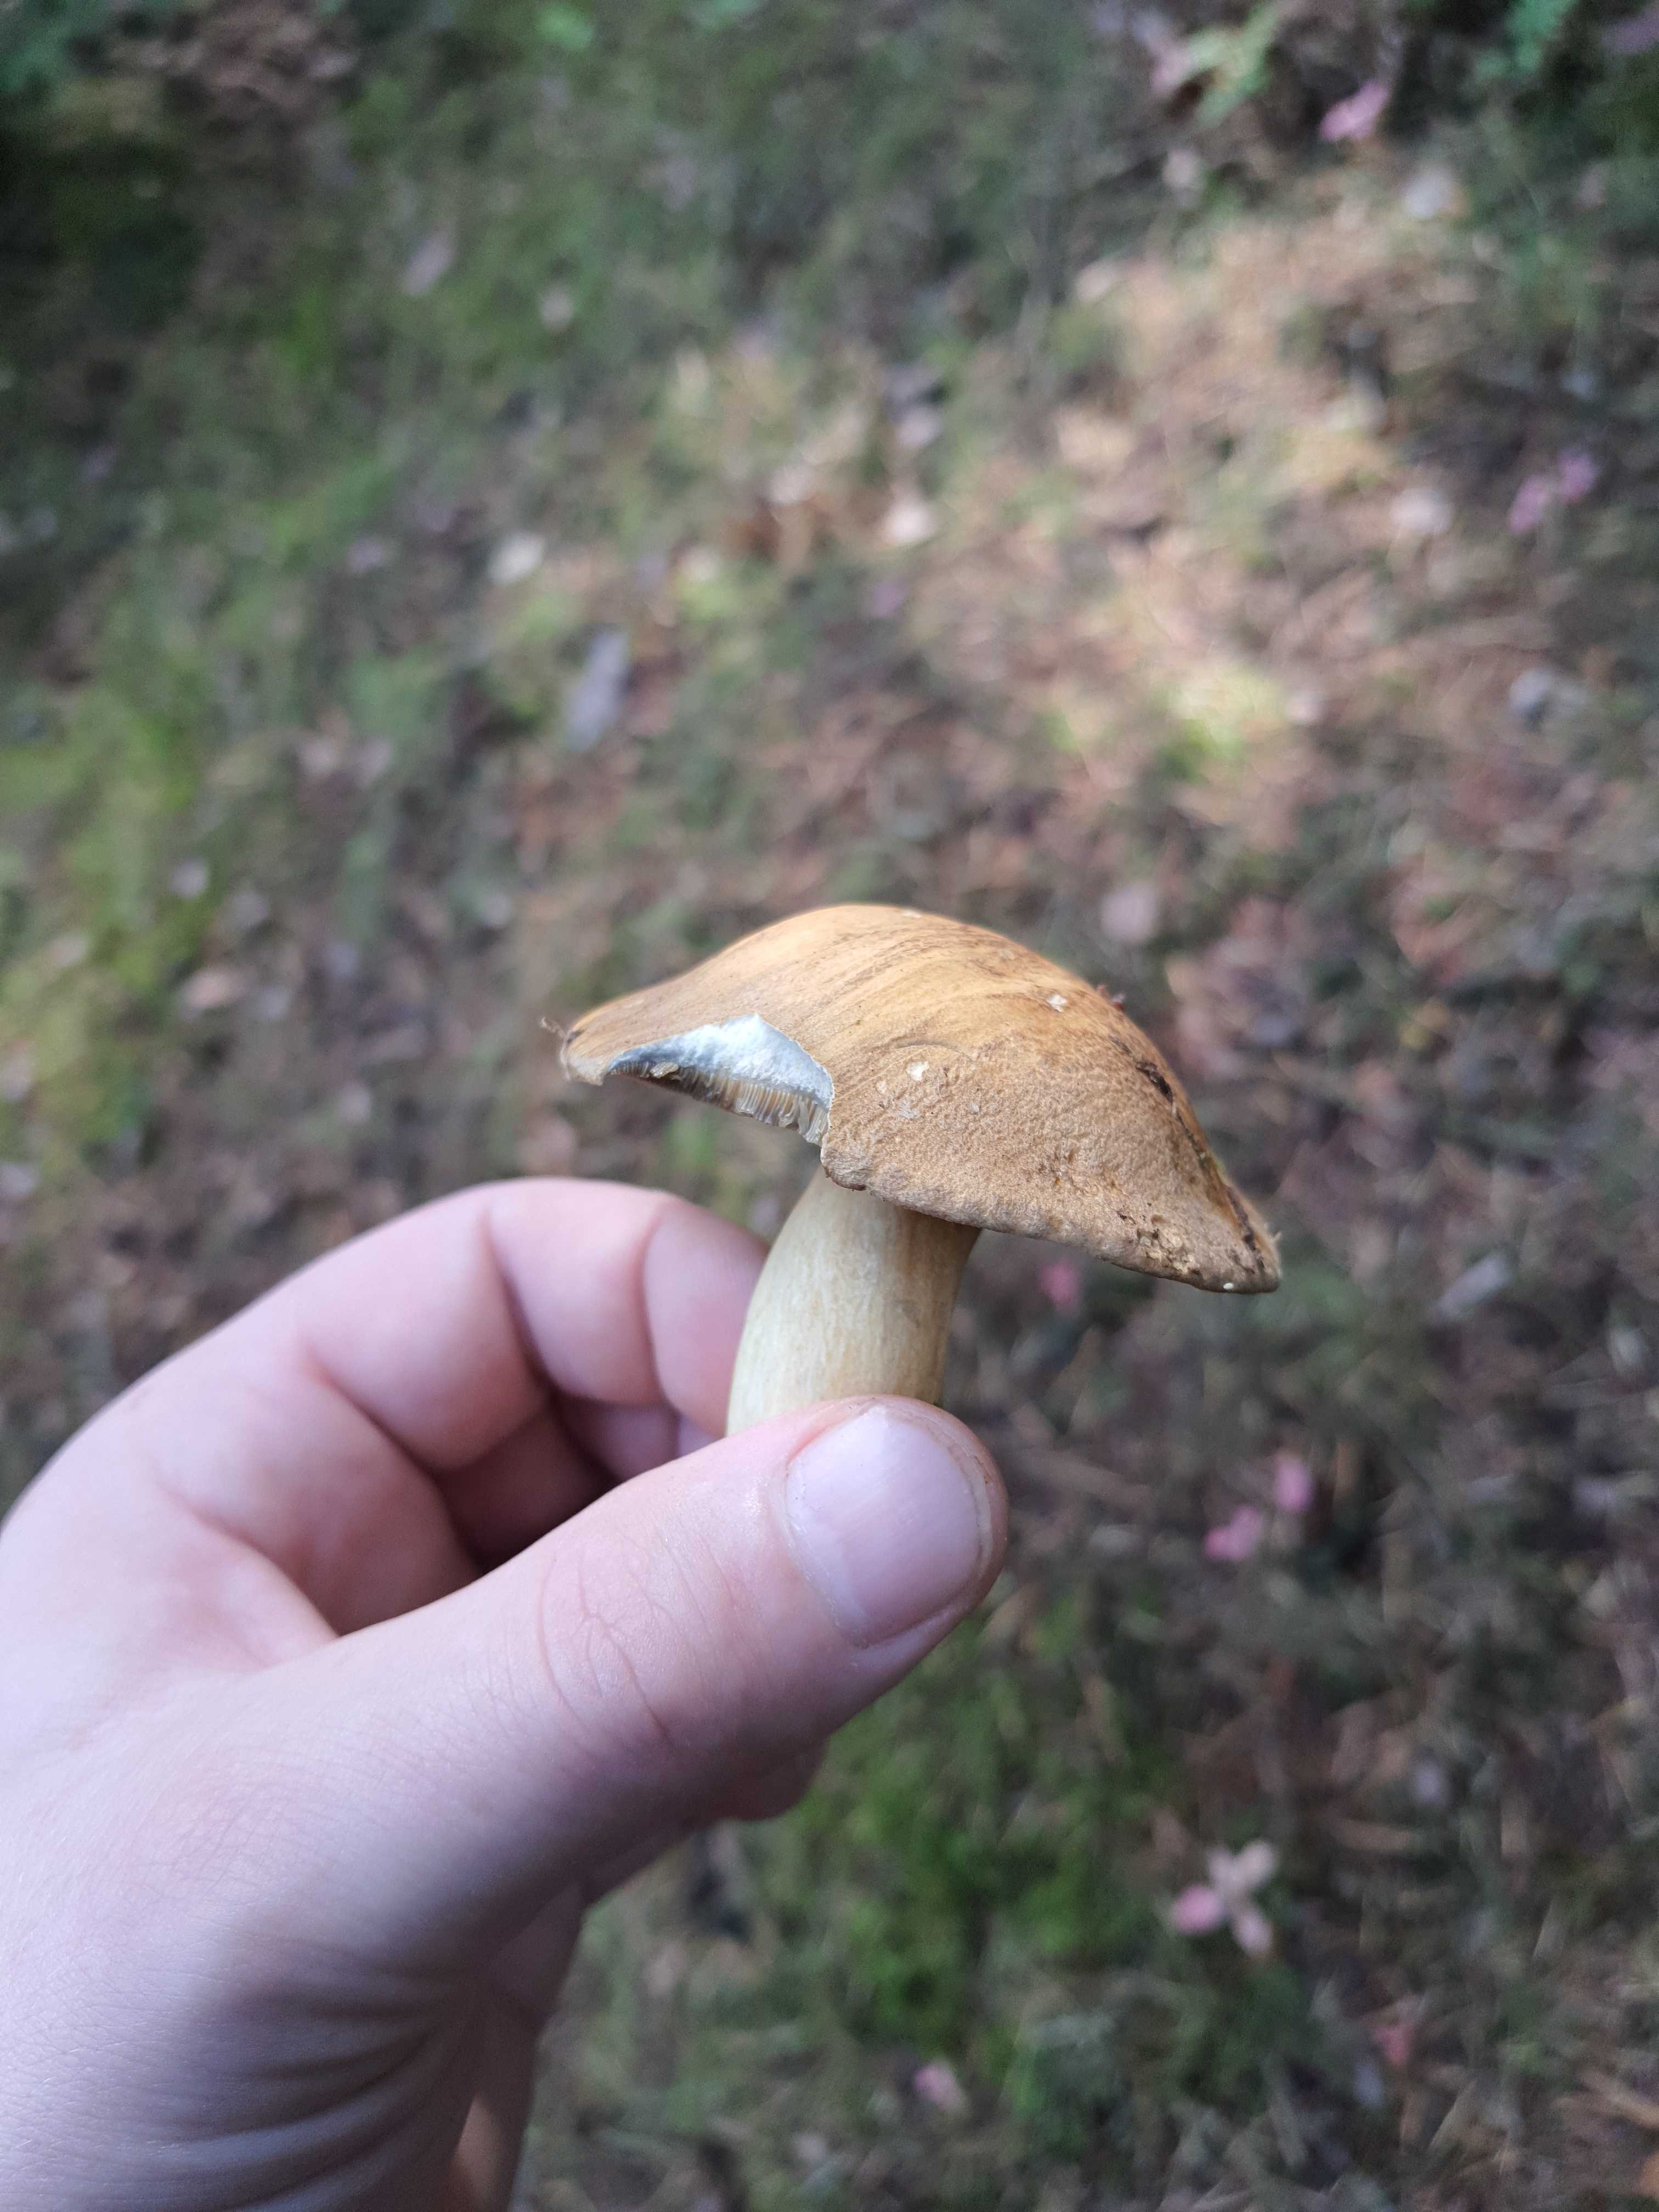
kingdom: Fungi
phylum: Basidiomycota
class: Agaricomycetes
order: Boletales
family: Suillaceae
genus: Suillus
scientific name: Suillus variegatus
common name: broget slimrørhat
